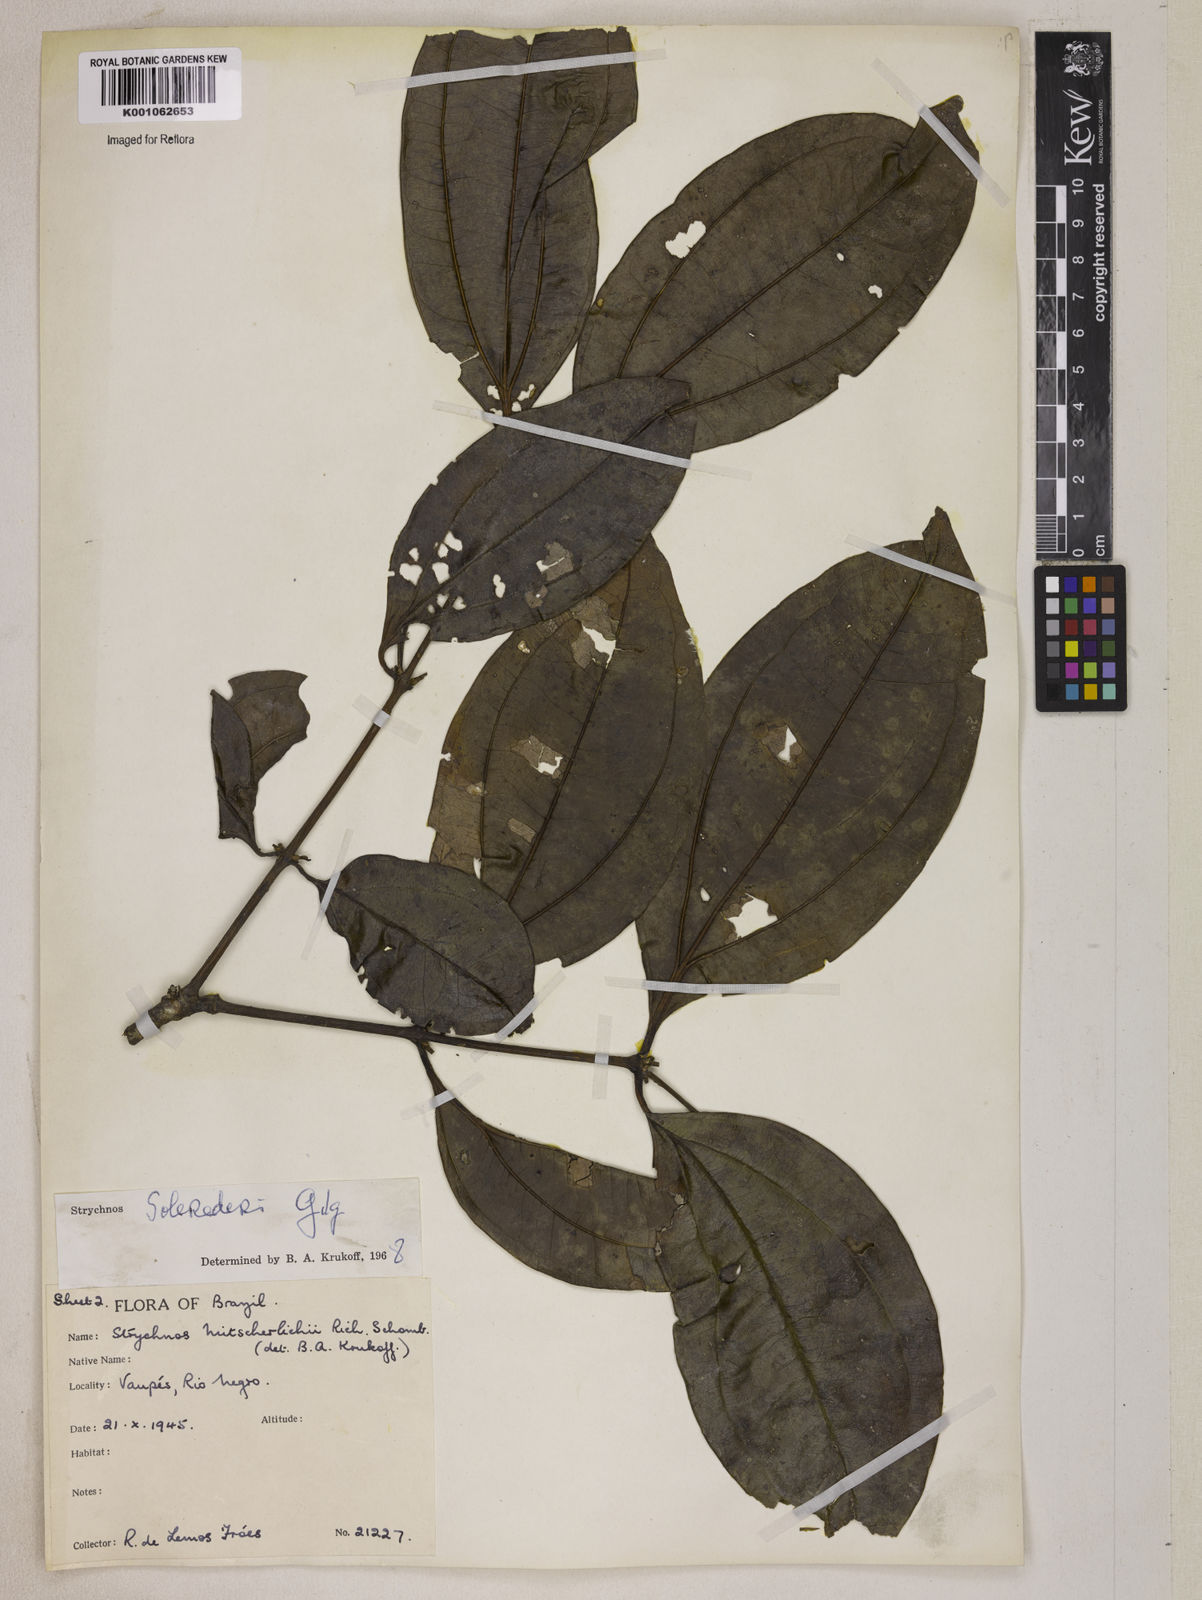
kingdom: Plantae
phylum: Tracheophyta
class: Magnoliopsida
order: Gentianales
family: Loganiaceae
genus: Strychnos
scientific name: Strychnos solerederi
